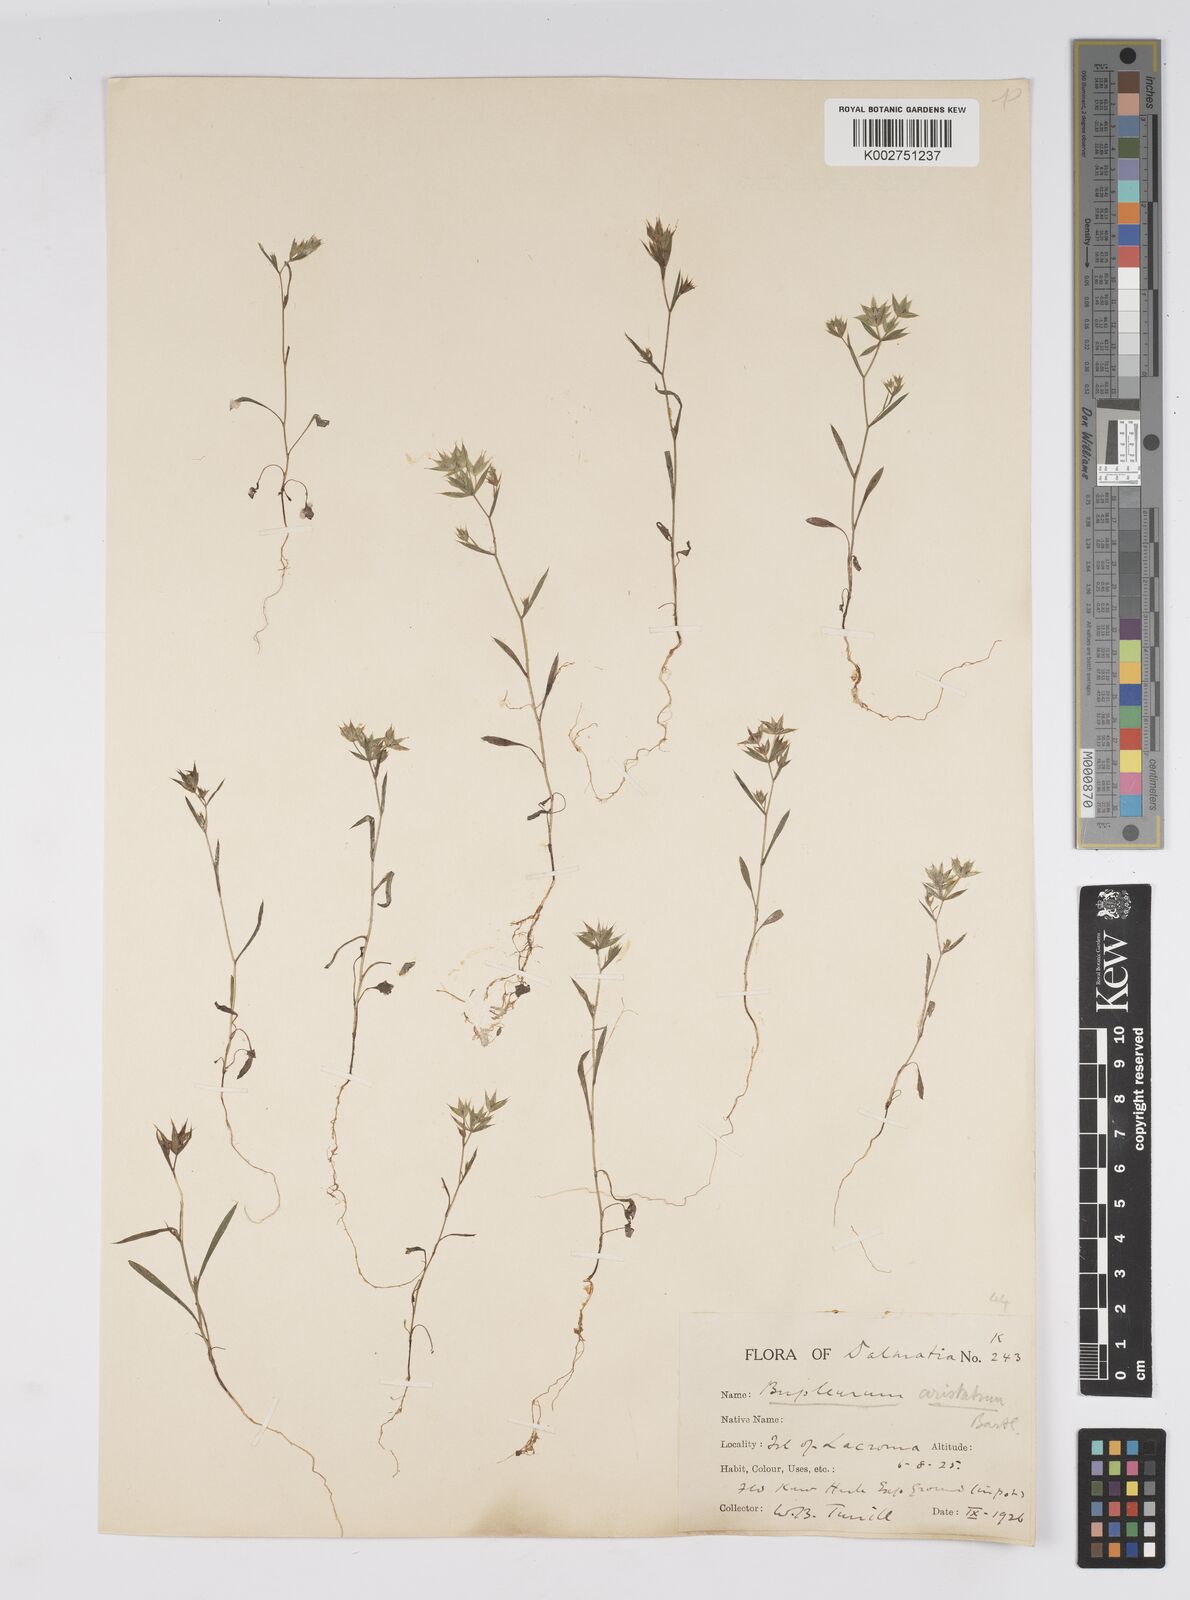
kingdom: Plantae
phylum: Tracheophyta
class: Magnoliopsida
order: Apiales
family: Apiaceae
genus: Bupleurum
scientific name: Bupleurum veronense
